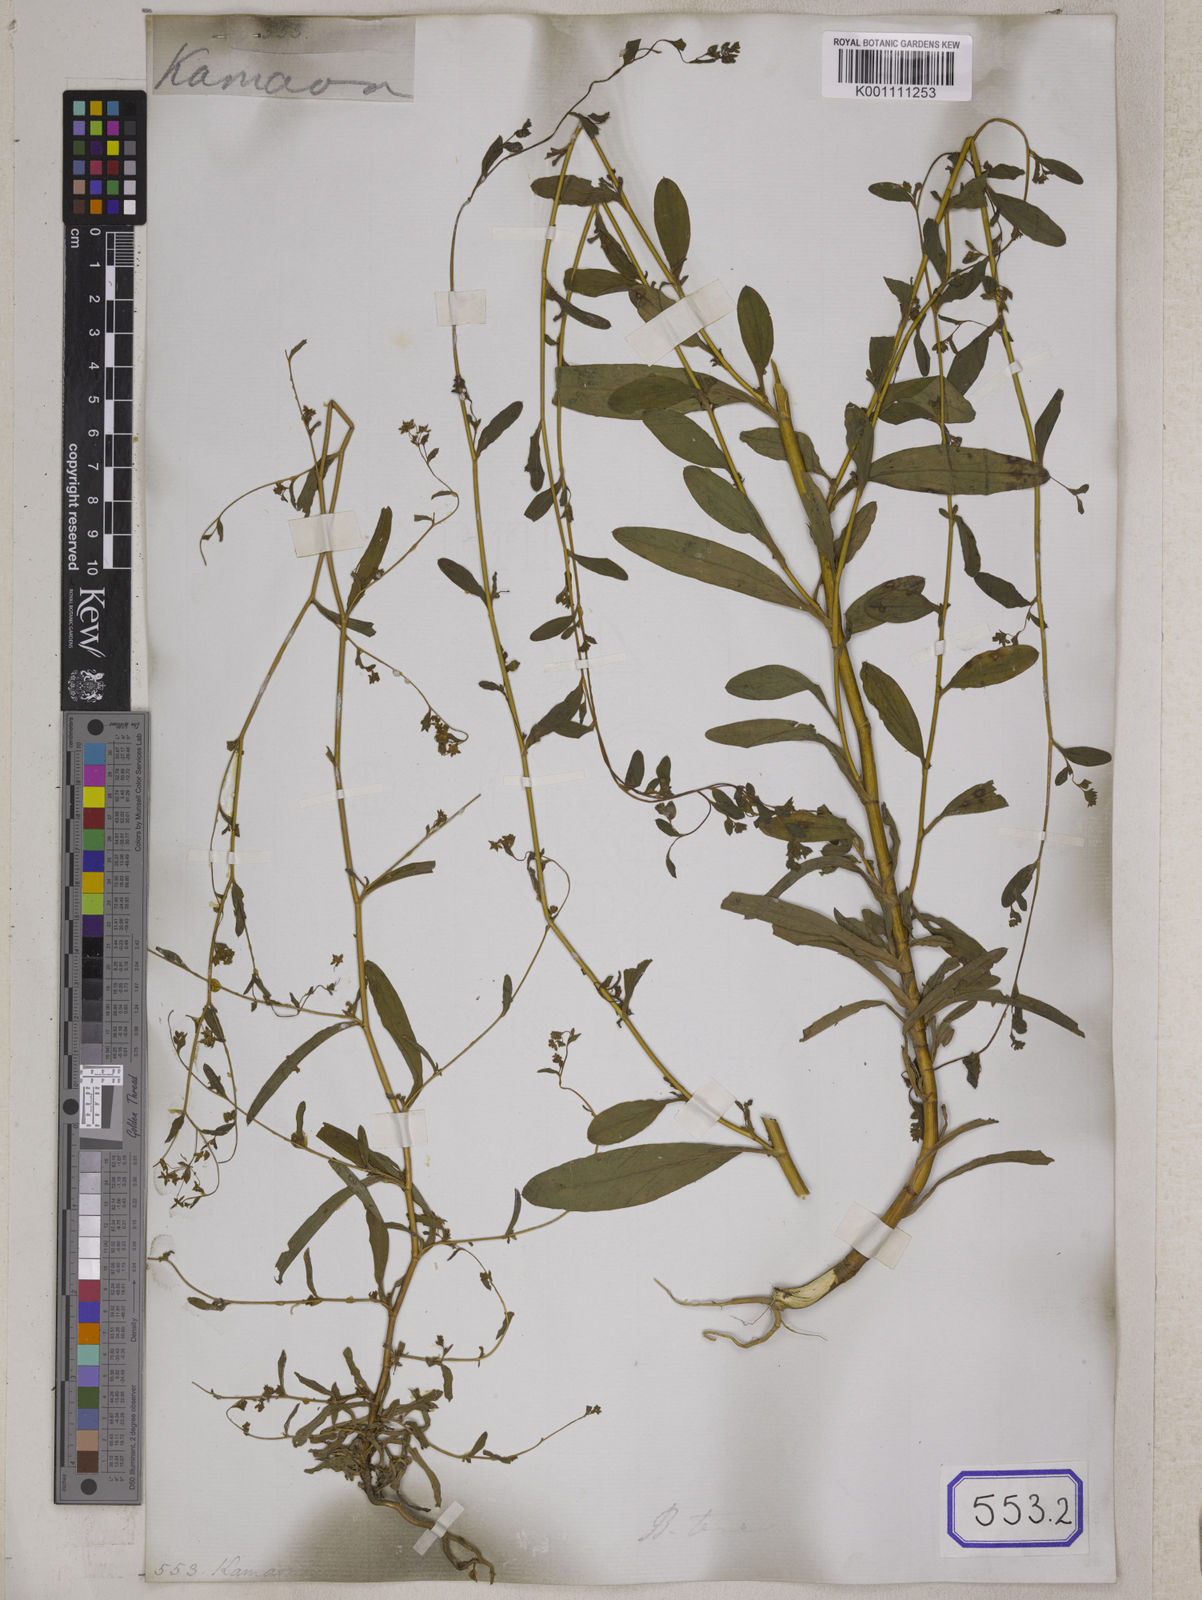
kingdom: Plantae
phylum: Tracheophyta
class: Magnoliopsida
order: Apiales
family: Apiaceae
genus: Bupleurum
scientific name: Bupleurum
